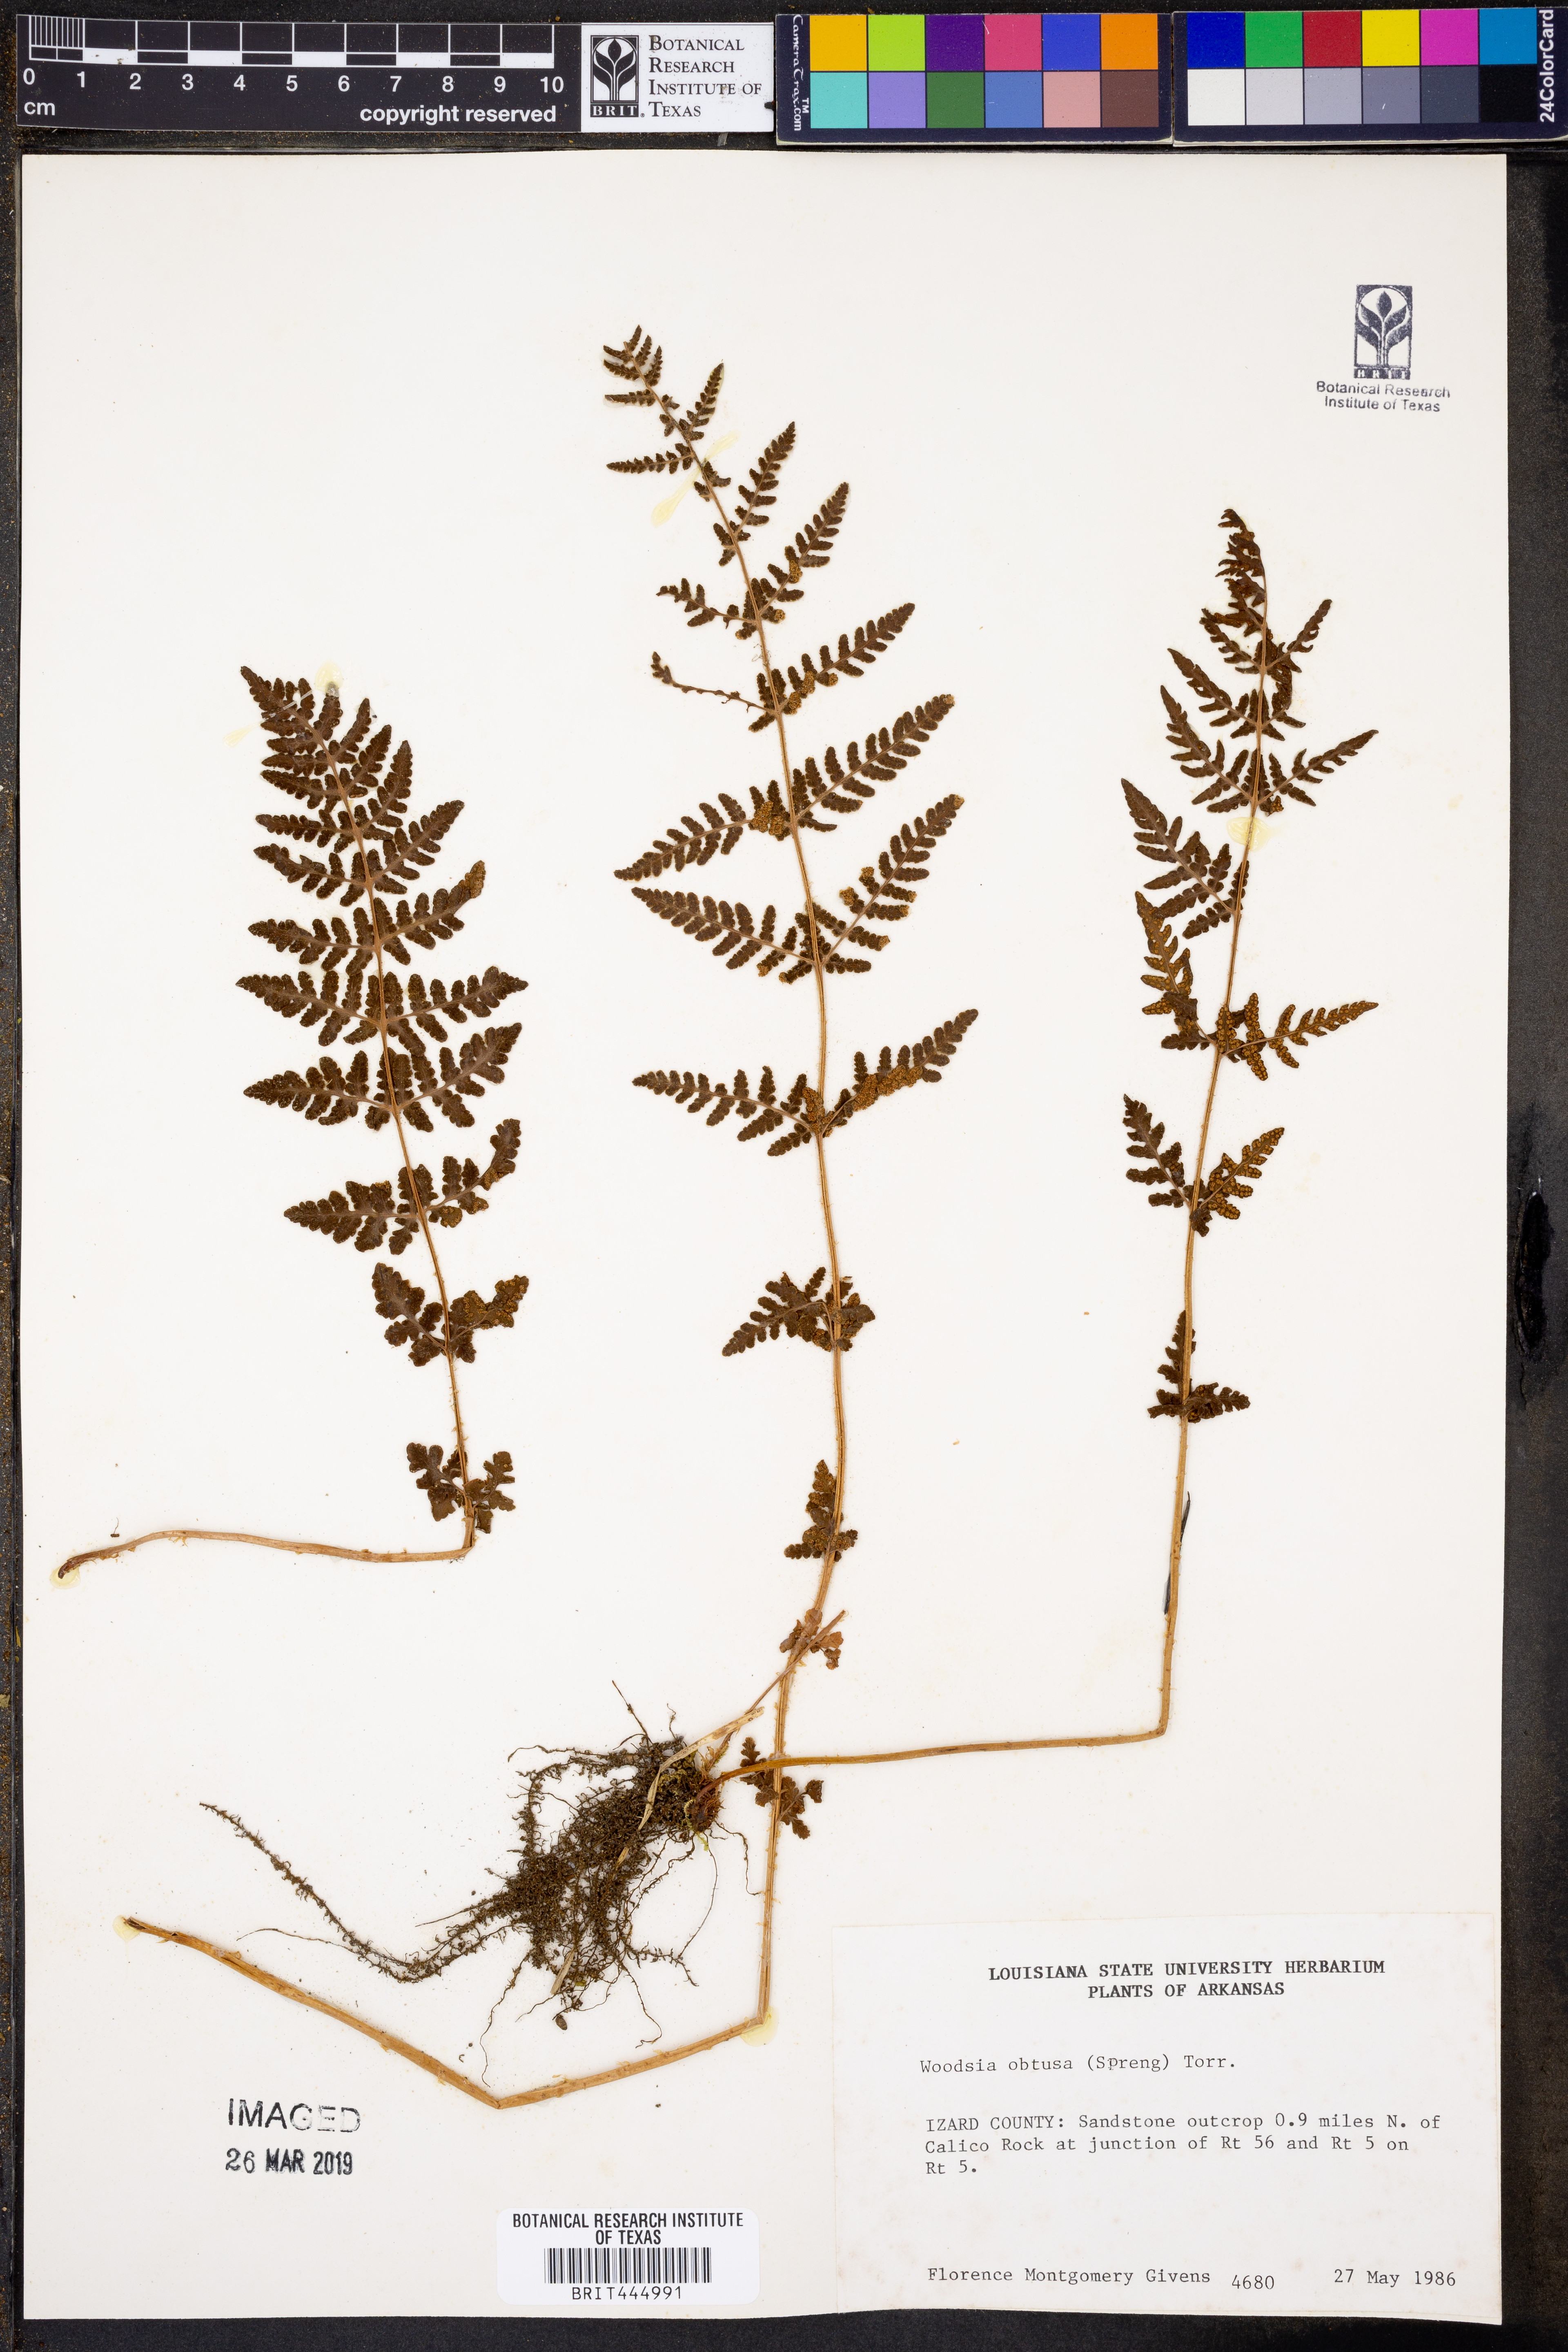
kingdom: Plantae
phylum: Tracheophyta
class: Polypodiopsida
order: Polypodiales
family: Woodsiaceae
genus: Physematium
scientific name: Physematium obtusum
